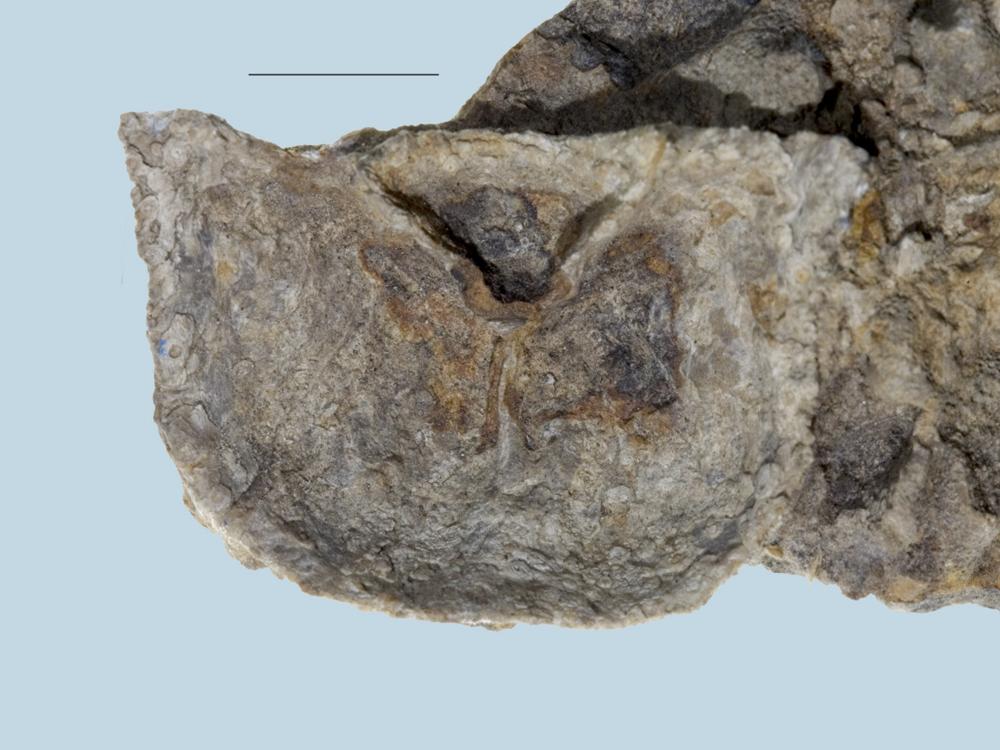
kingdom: Animalia
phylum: Brachiopoda
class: Rhynchonellata
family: Clitambonitidae
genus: Clinambon
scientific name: Clinambon anomalus
